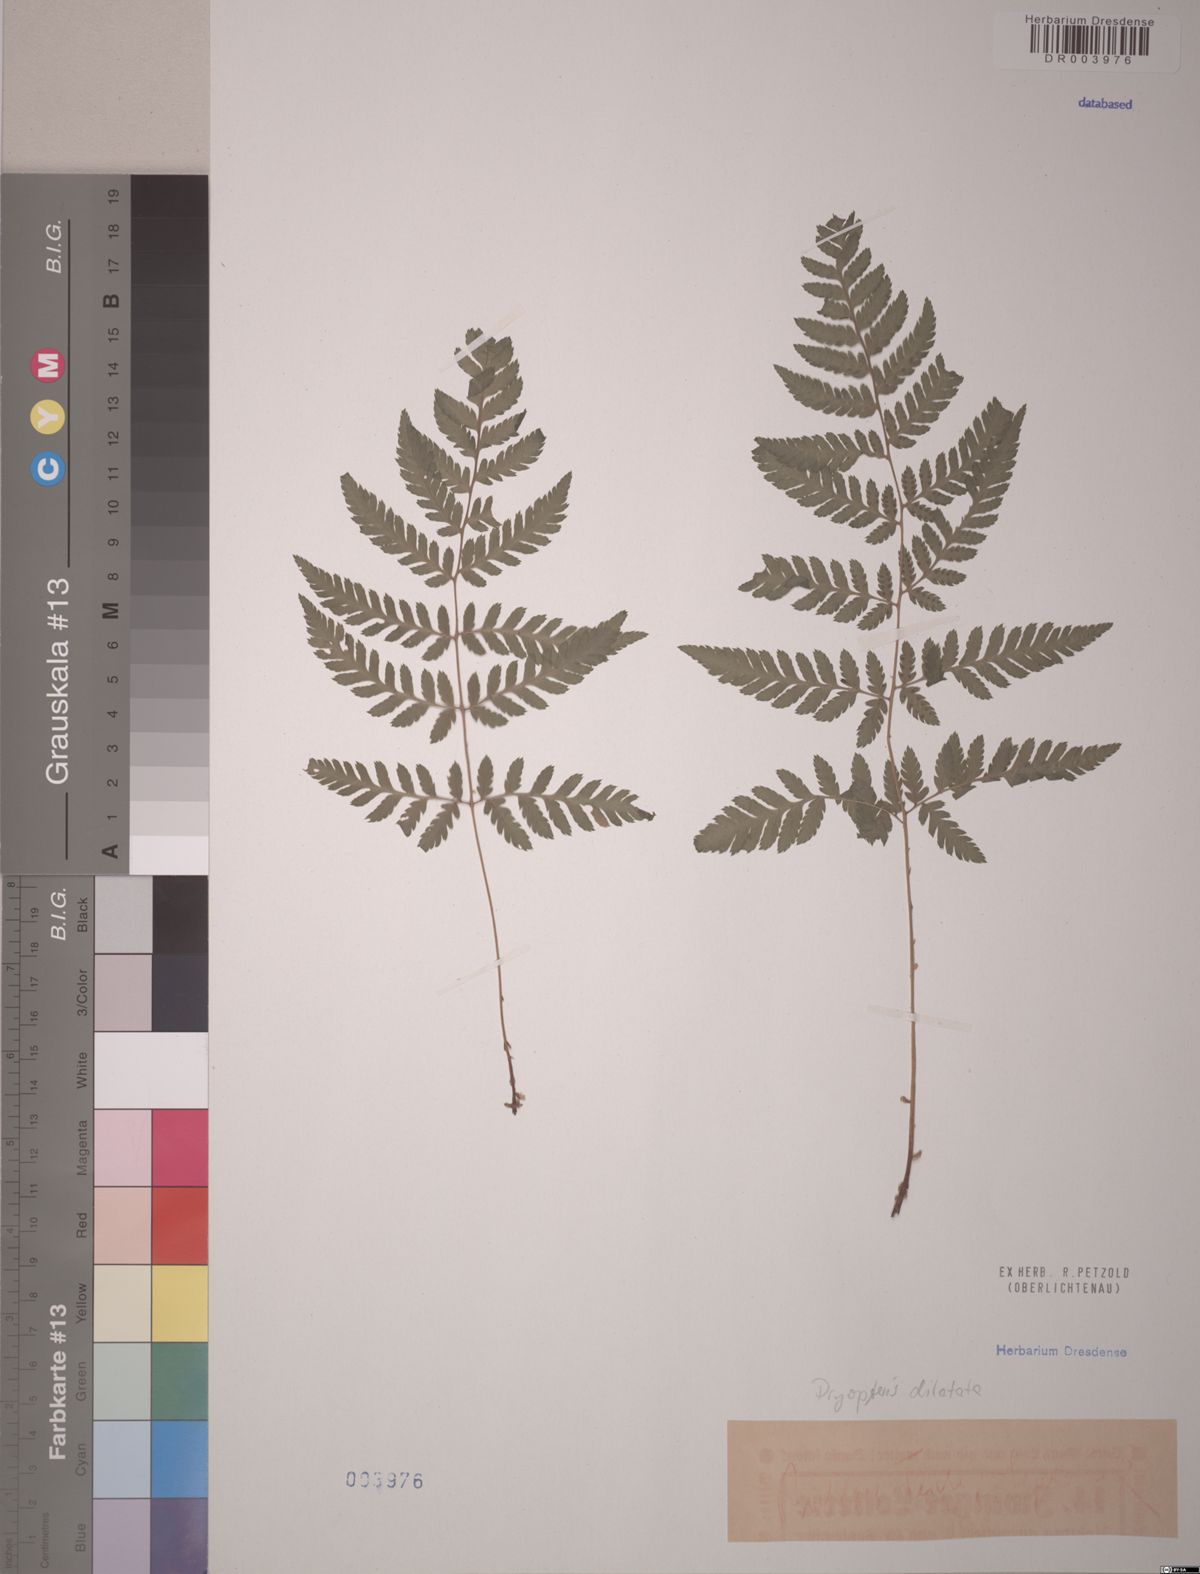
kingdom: Plantae
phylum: Tracheophyta
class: Polypodiopsida
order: Polypodiales
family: Dryopteridaceae
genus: Dryopteris
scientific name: Dryopteris dilatata
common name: Broad buckler-fern
